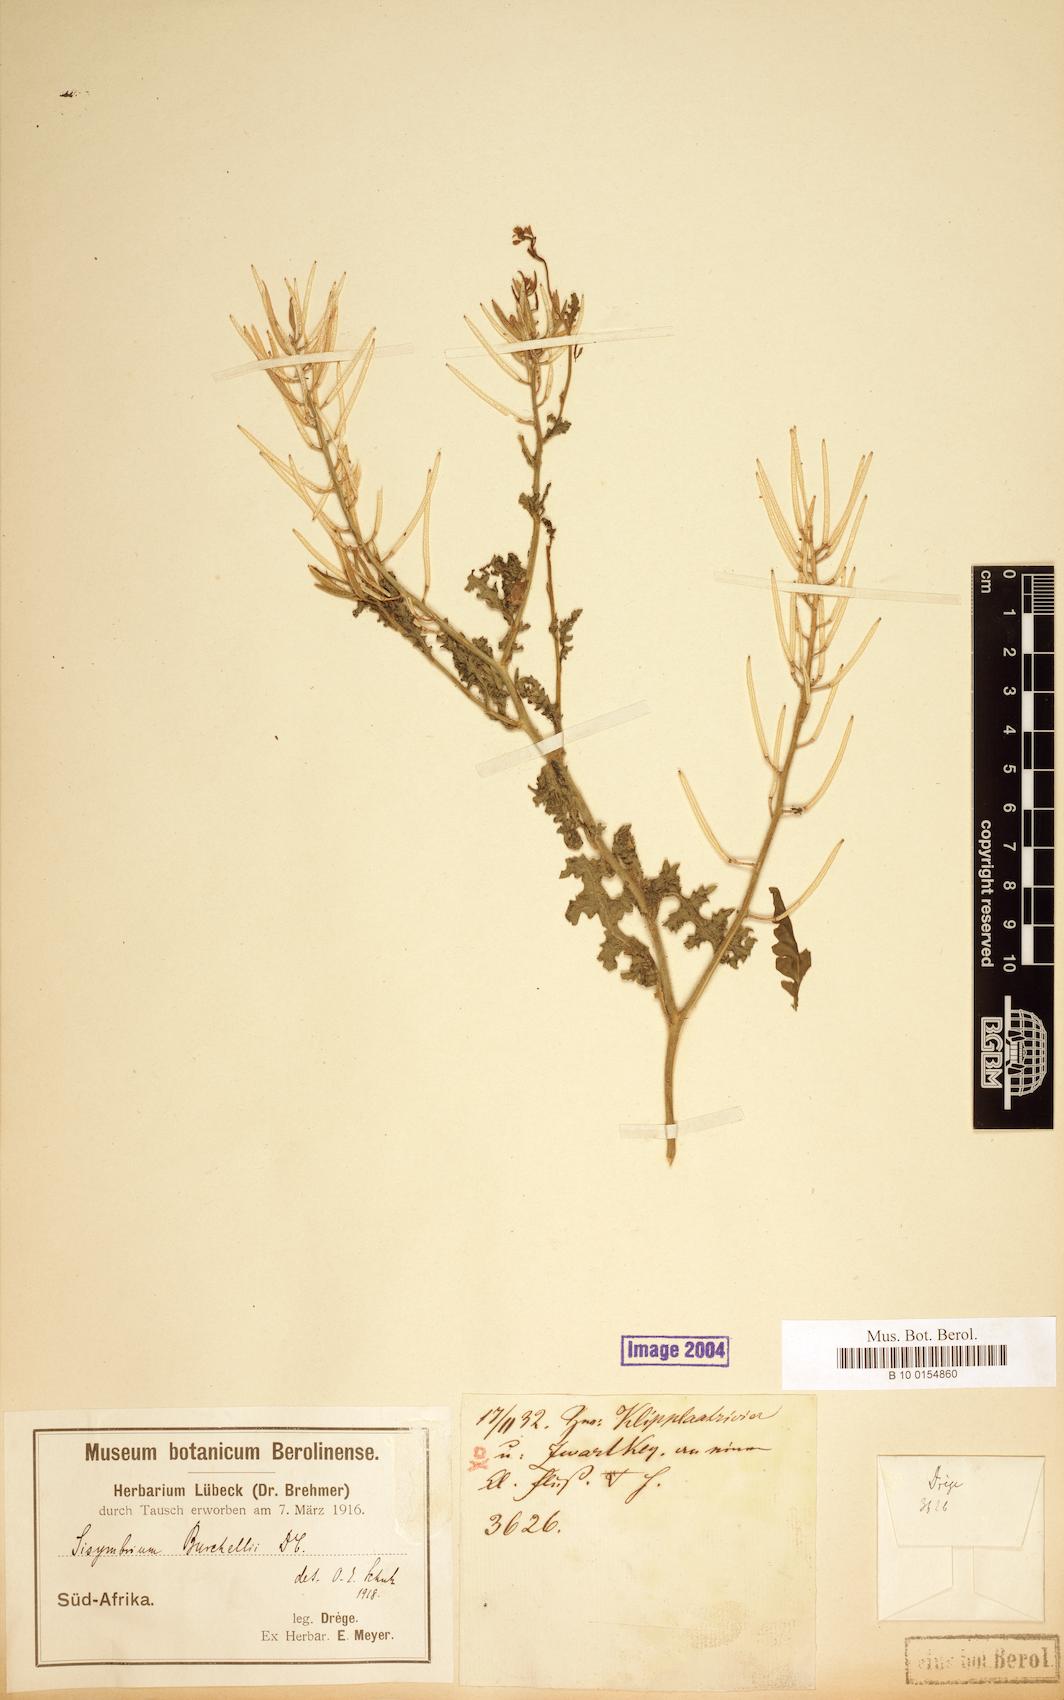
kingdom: Plantae
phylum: Tracheophyta
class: Magnoliopsida
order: Brassicales
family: Brassicaceae
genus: Sisymbrium
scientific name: Sisymbrium burchellii
